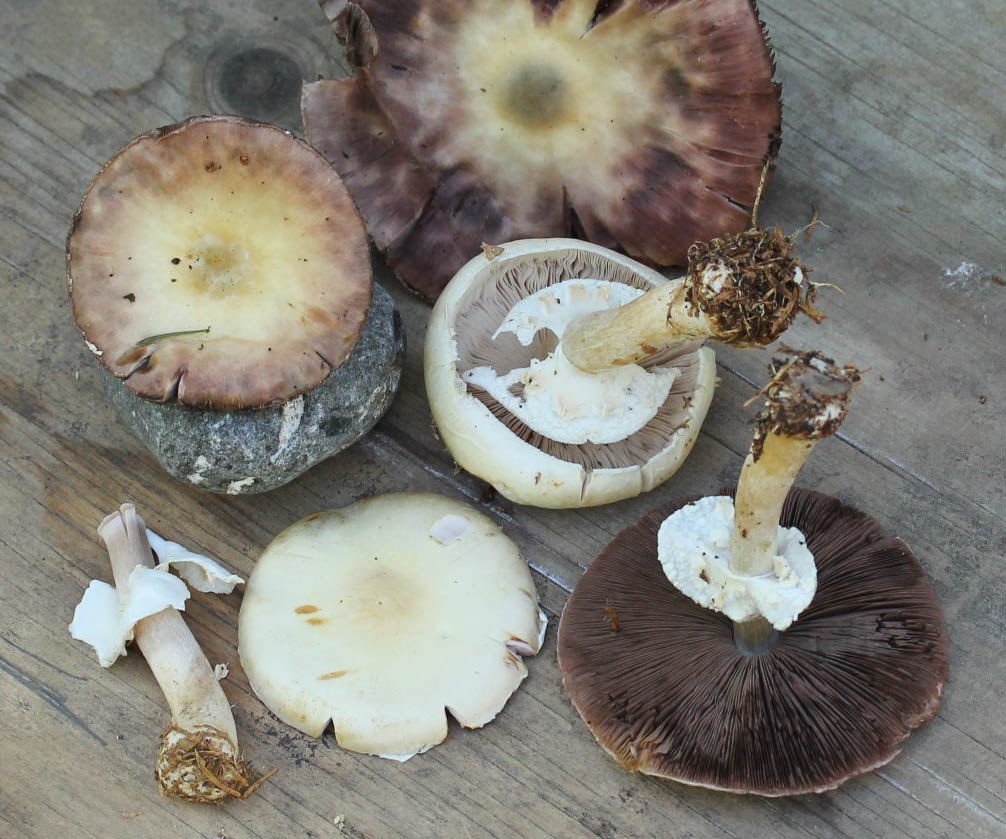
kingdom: Fungi
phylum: Basidiomycota
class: Agaricomycetes
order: Agaricales
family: Agaricaceae
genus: Agaricus
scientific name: Agaricus sylvicola
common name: gulhvid champignon
